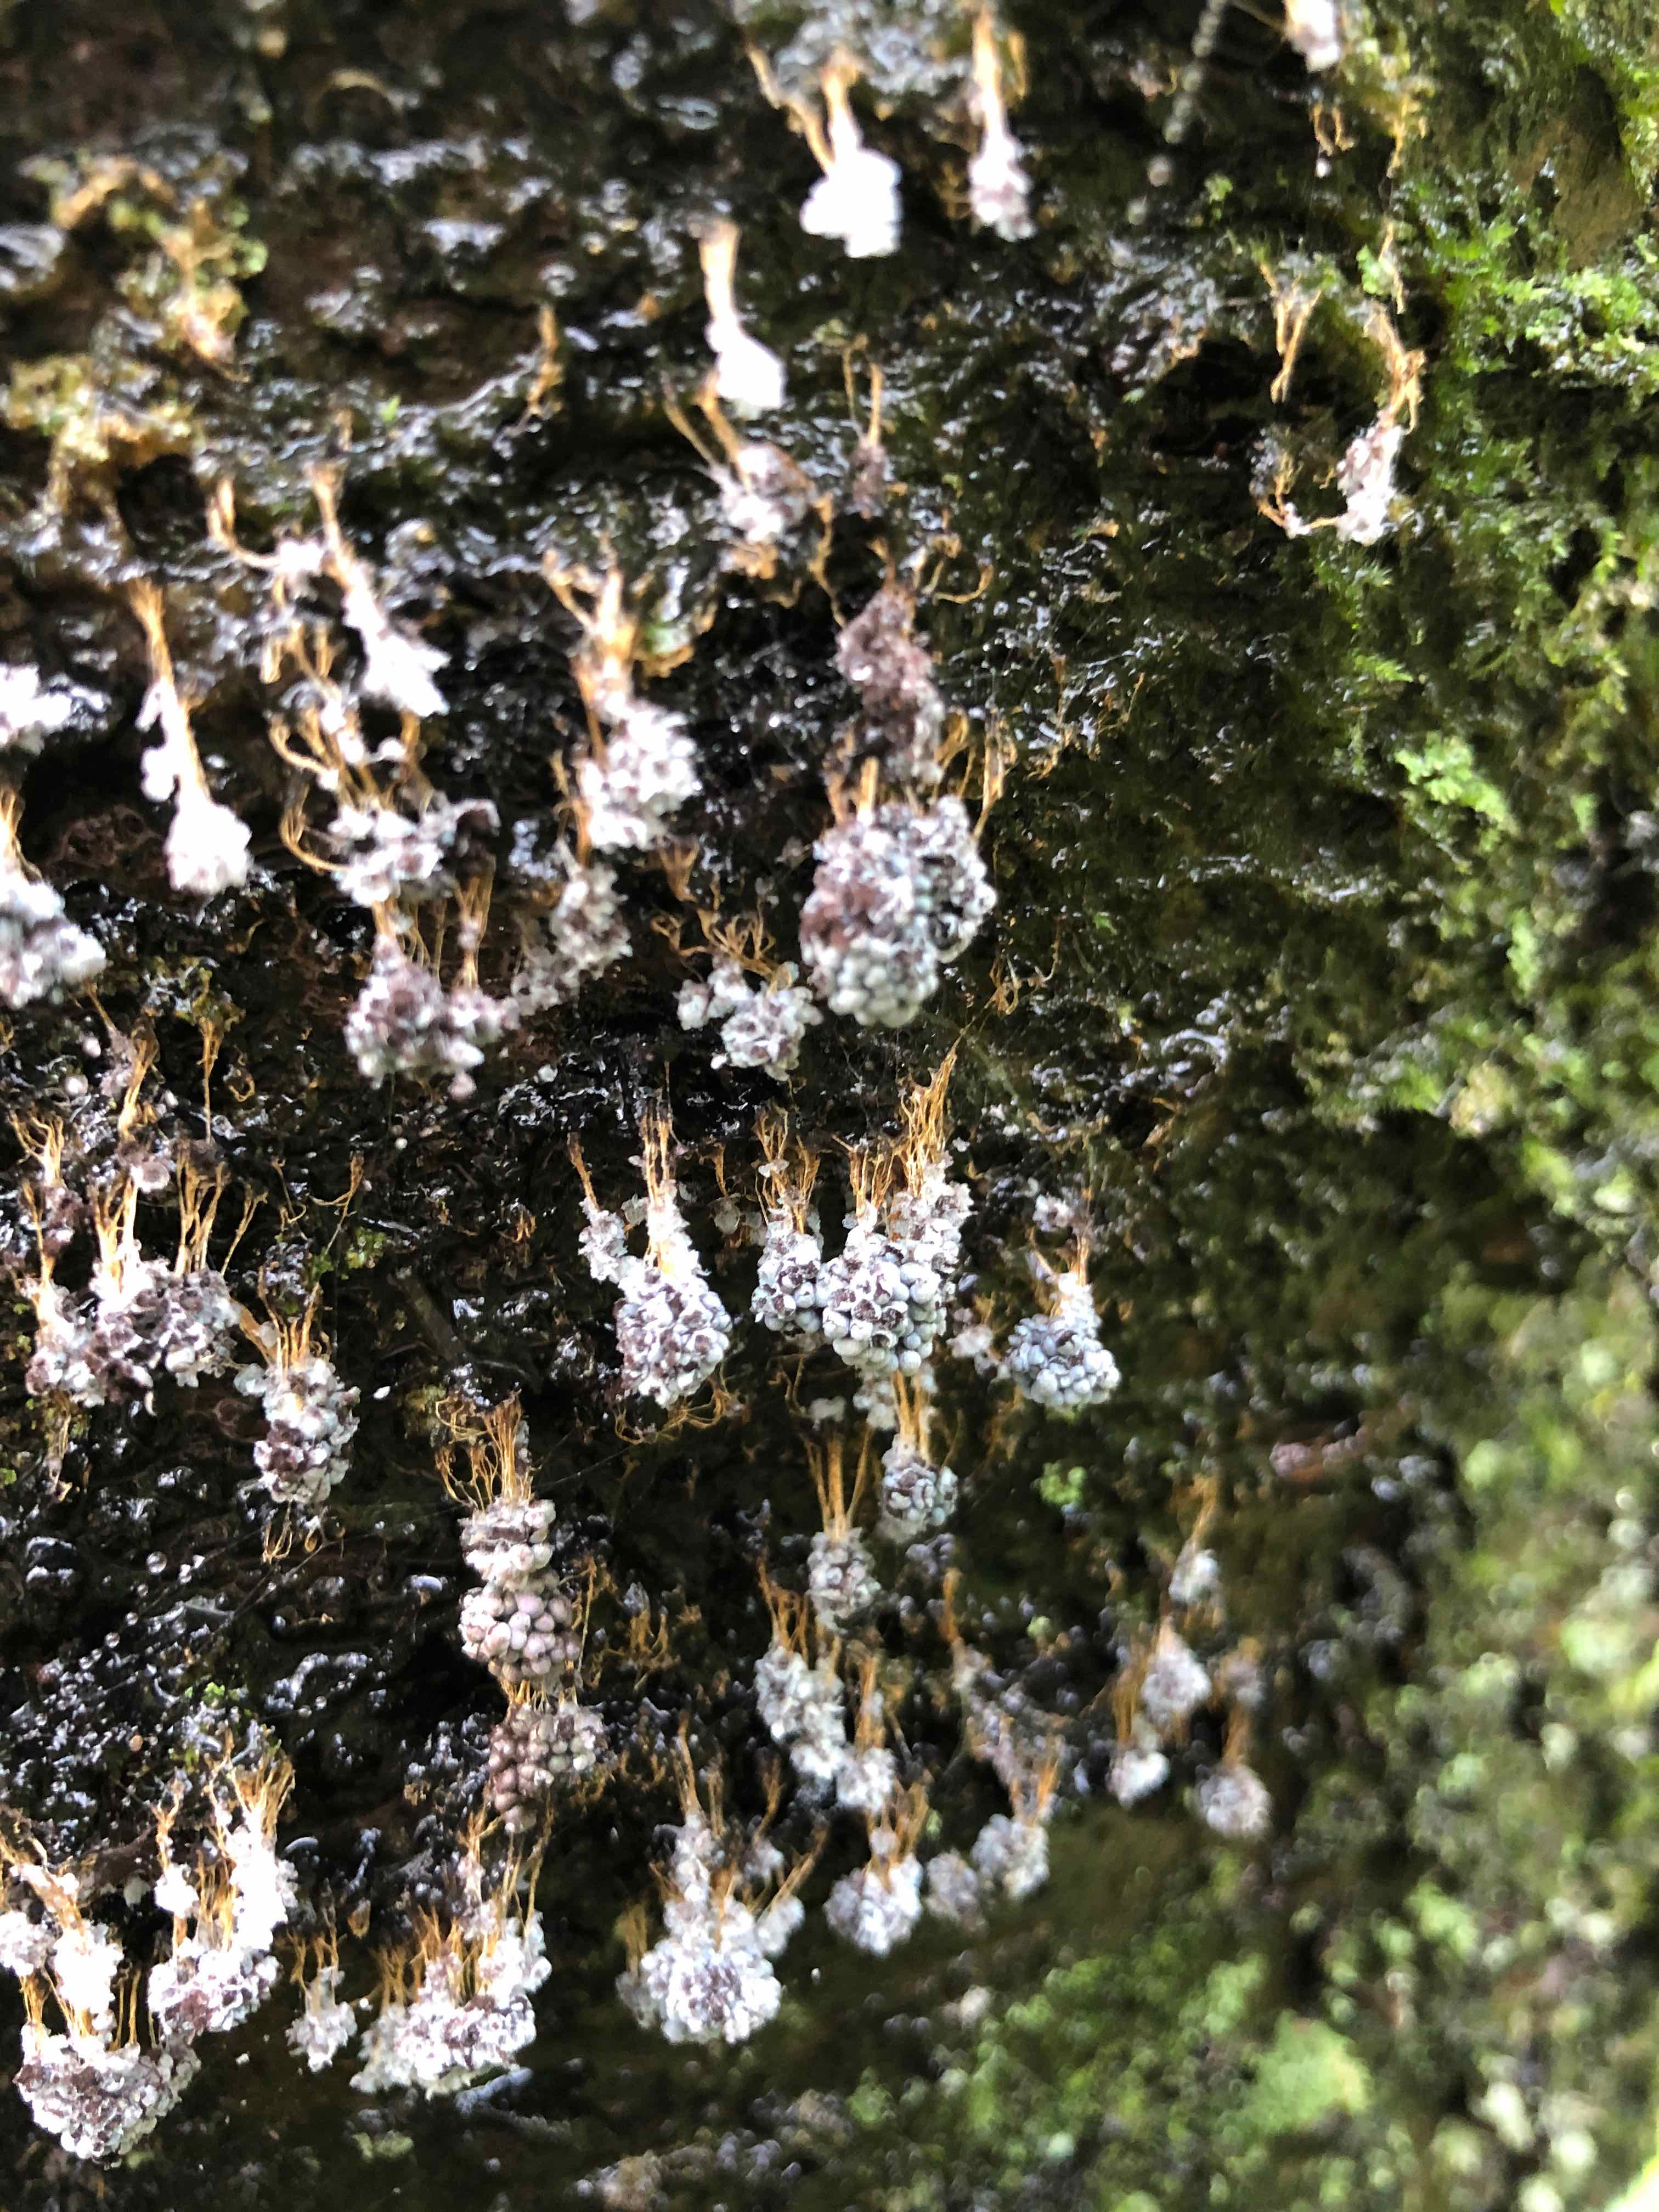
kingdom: Protozoa
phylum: Mycetozoa
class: Myxomycetes
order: Physarales
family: Physaraceae
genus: Badhamia
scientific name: Badhamia utricularis
